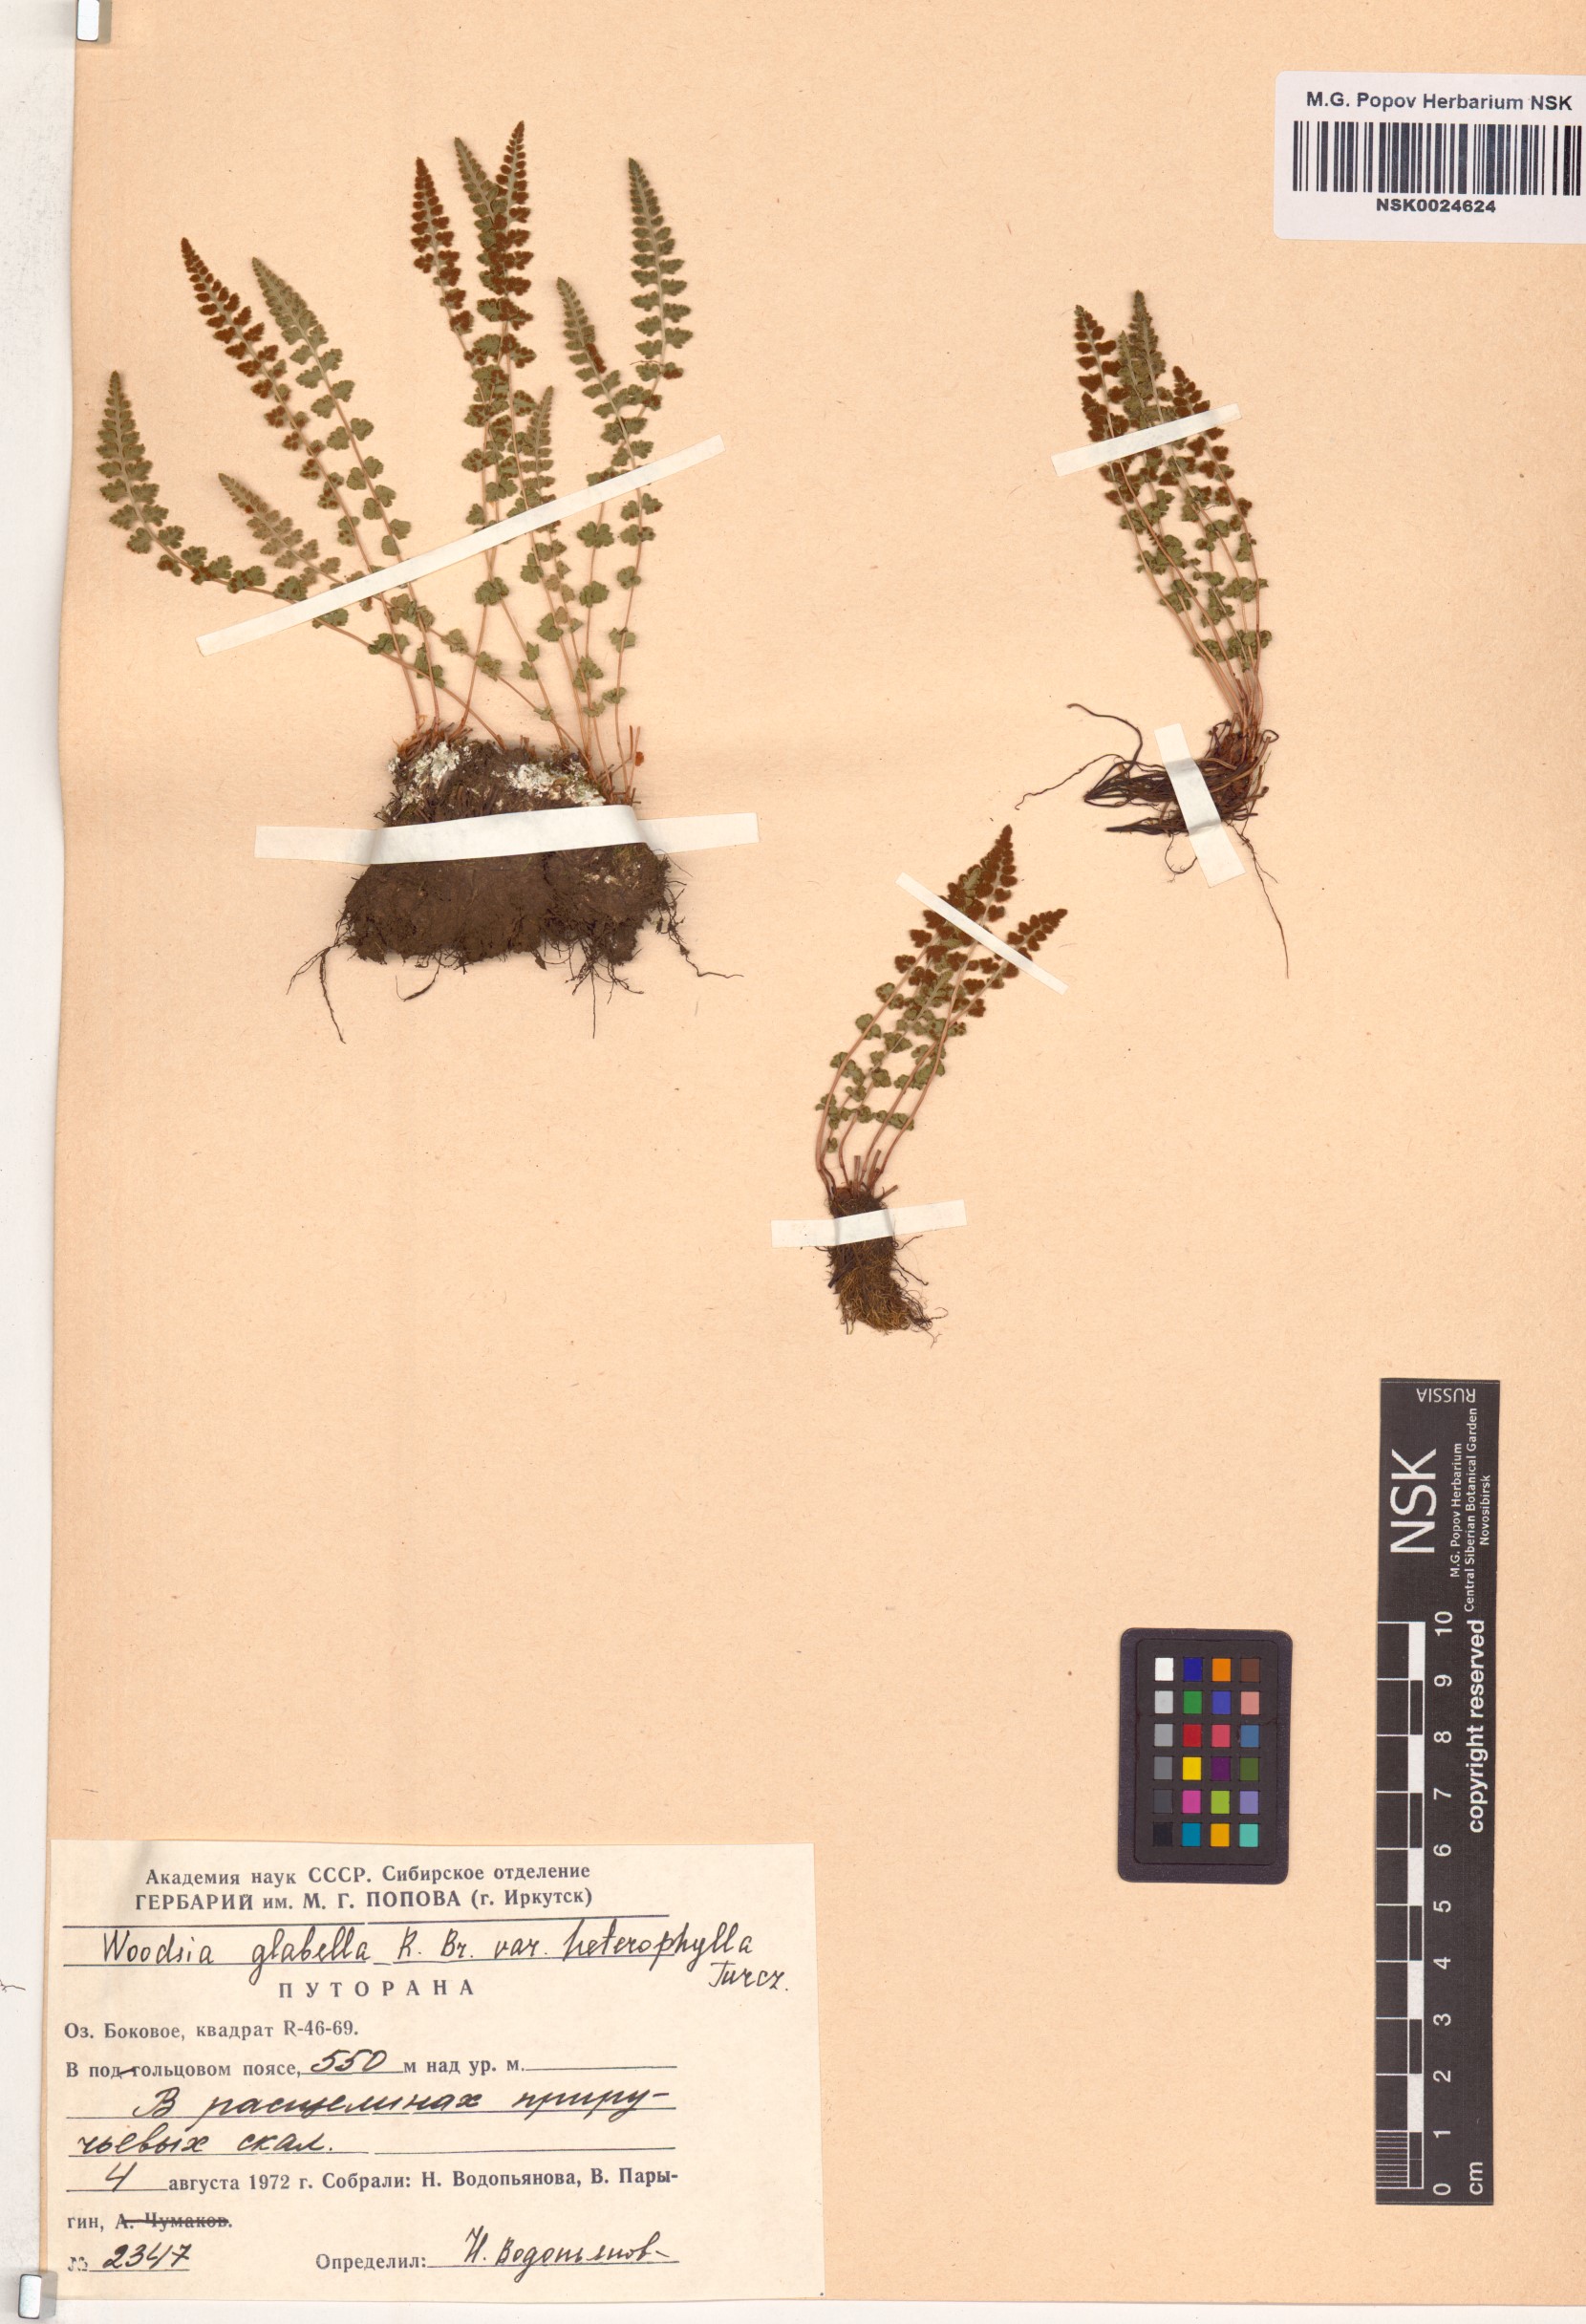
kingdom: Plantae
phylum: Tracheophyta
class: Polypodiopsida
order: Polypodiales
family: Woodsiaceae
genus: Woodsia
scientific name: Woodsia pulchella
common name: Graceful woodsia
